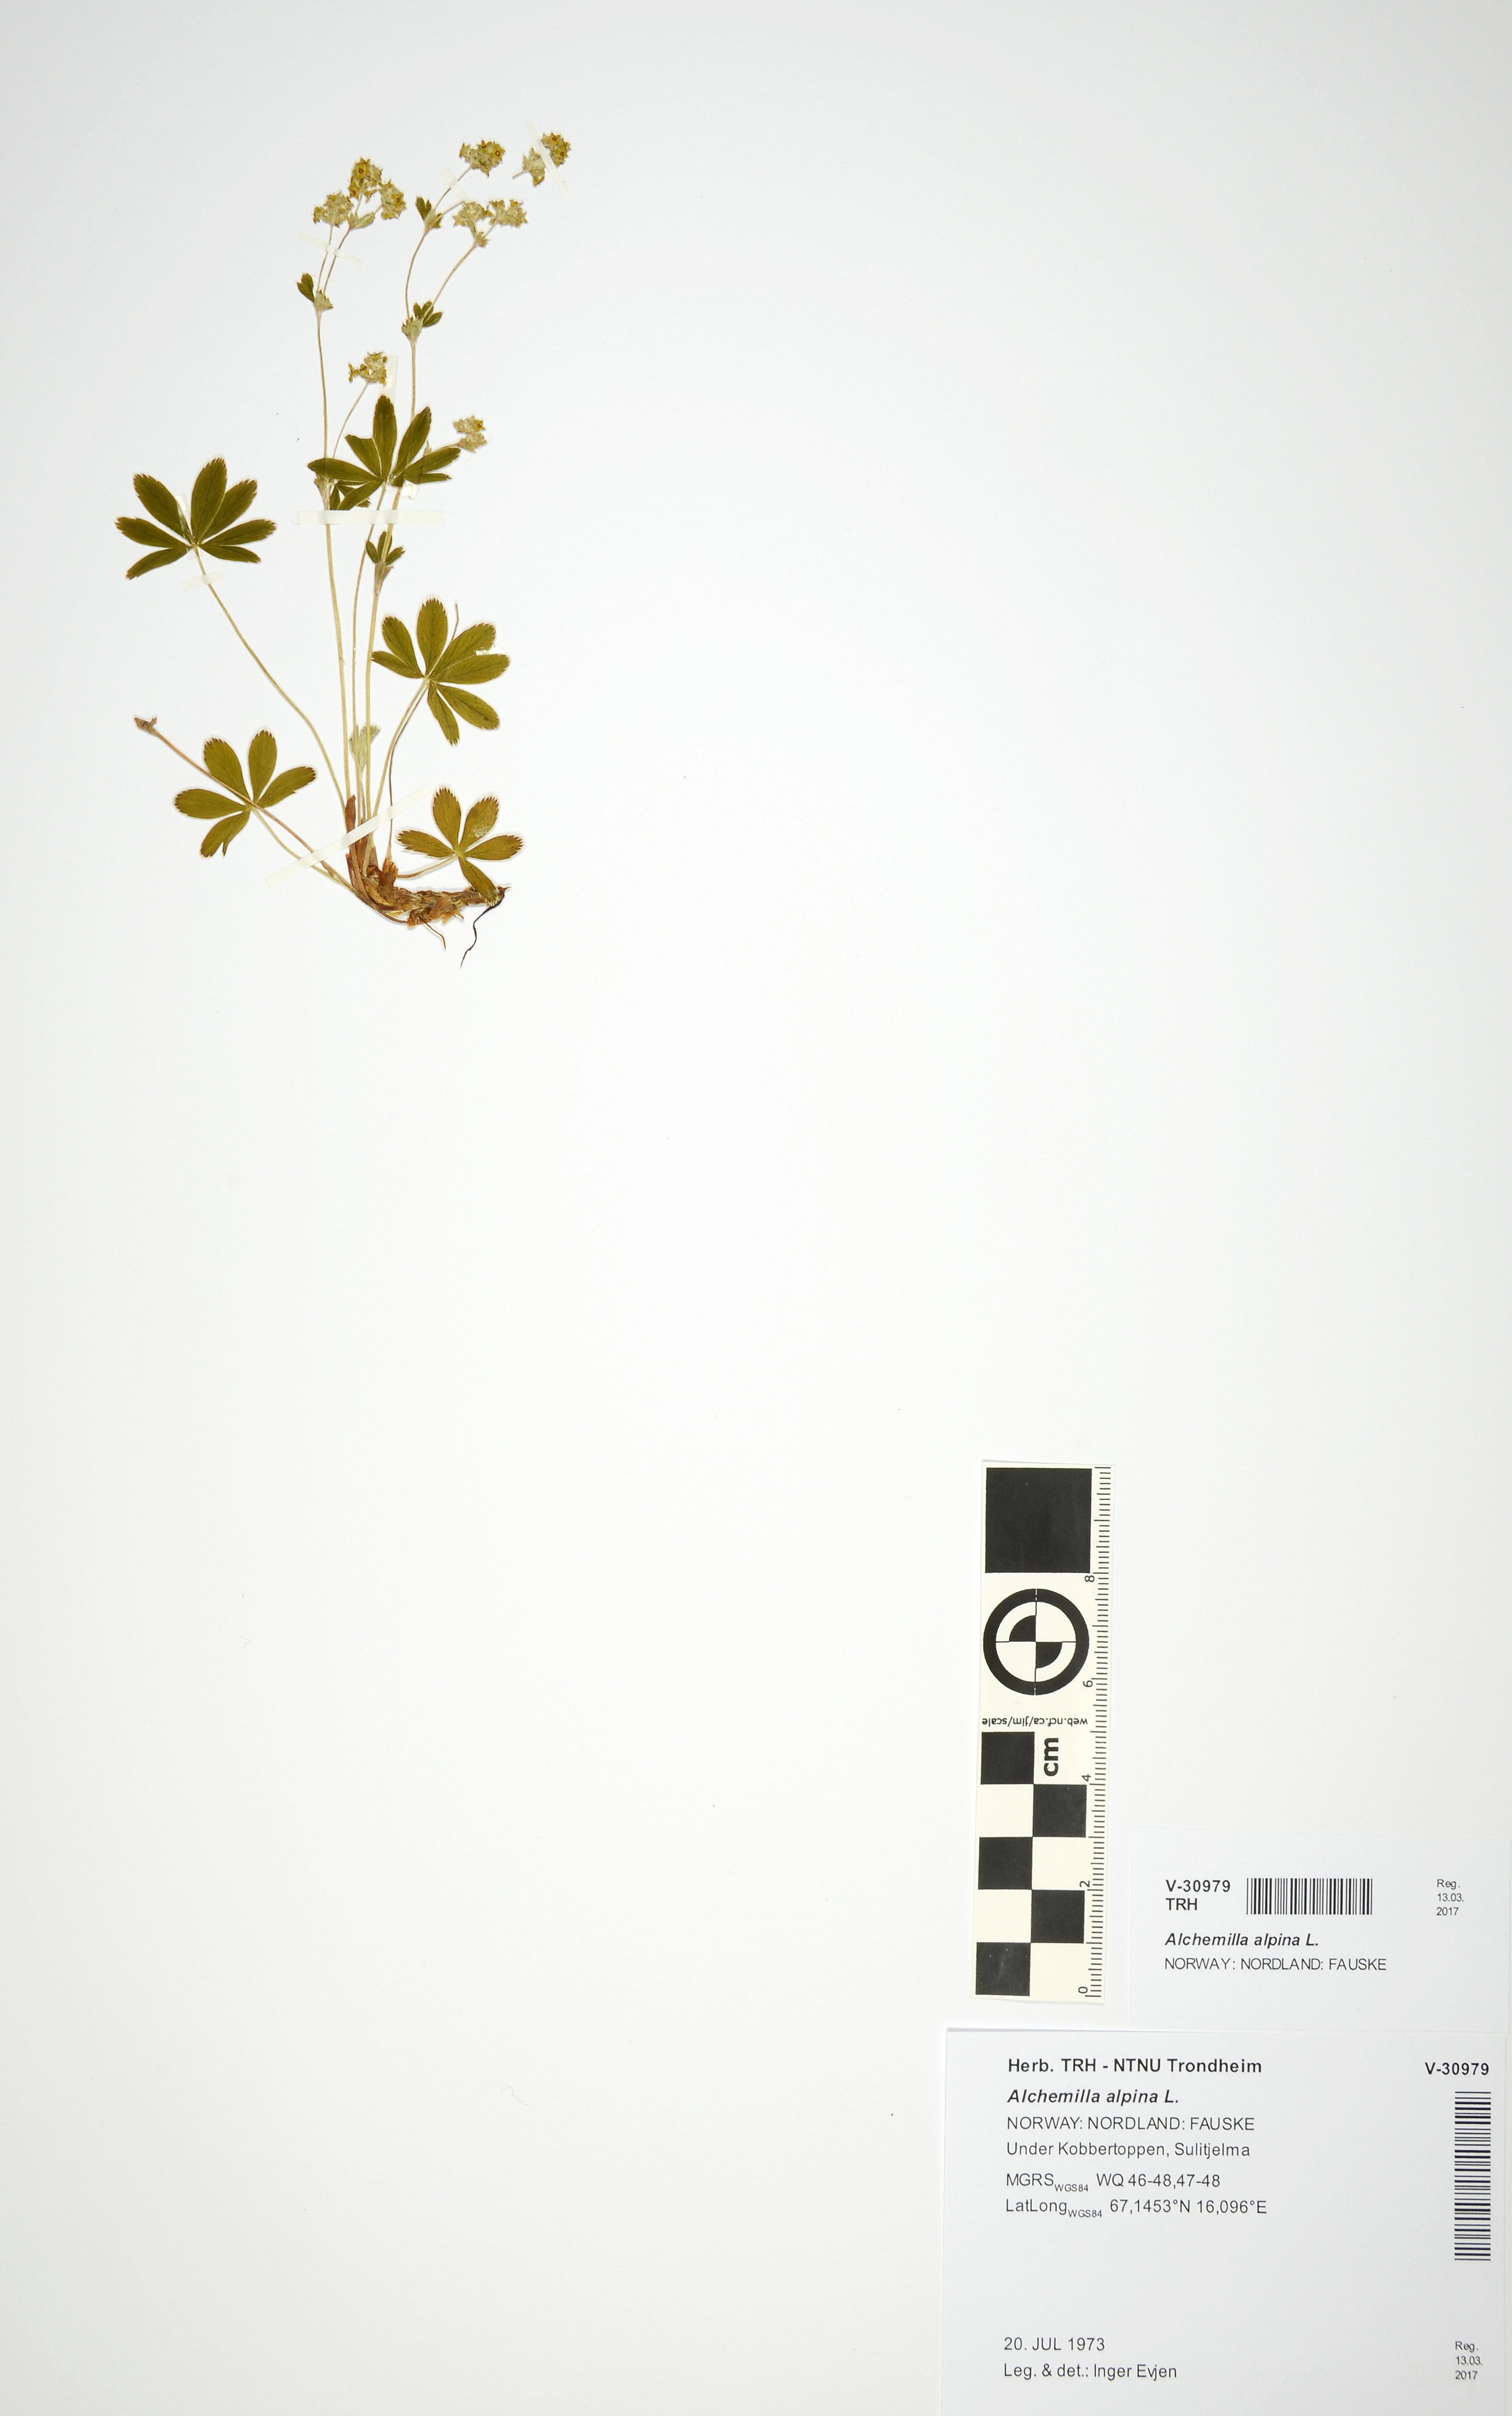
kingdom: Plantae
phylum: Tracheophyta
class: Magnoliopsida
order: Rosales
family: Rosaceae
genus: Alchemilla
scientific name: Alchemilla alpina
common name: Alpine lady's-mantle
